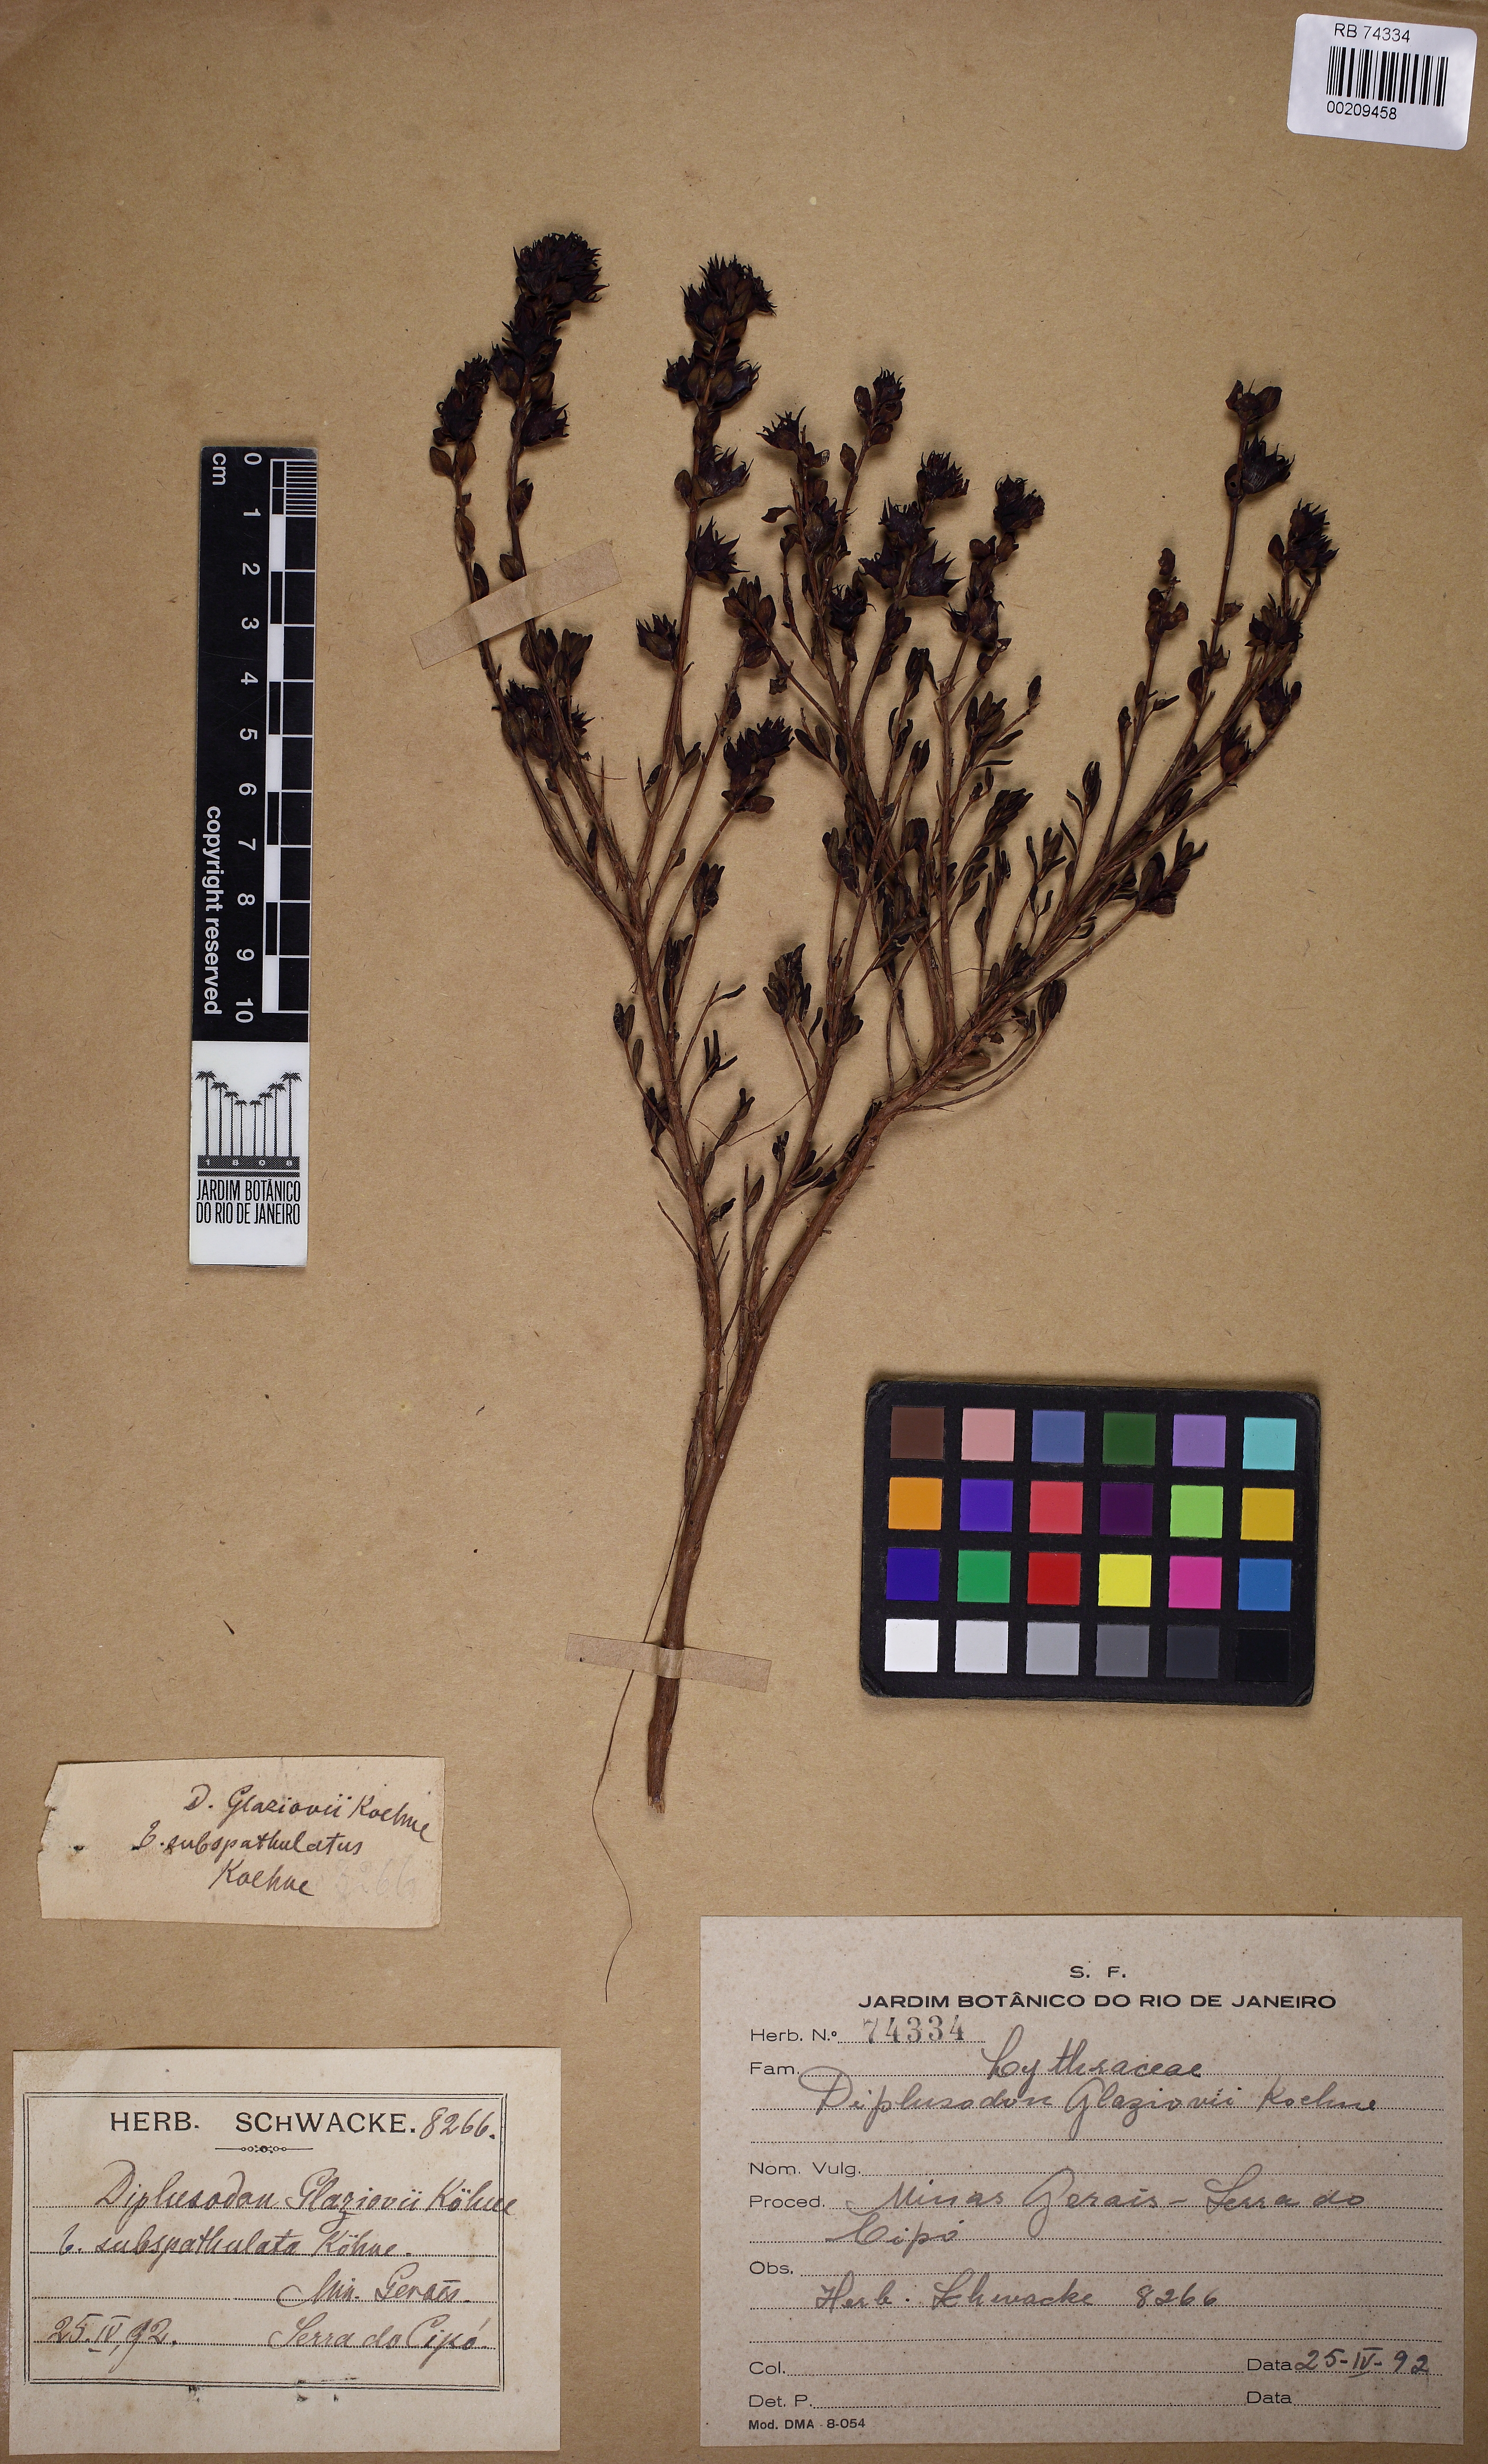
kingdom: Plantae
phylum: Tracheophyta
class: Magnoliopsida
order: Myrtales
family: Lythraceae
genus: Diplusodon
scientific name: Diplusodon glaziovii
